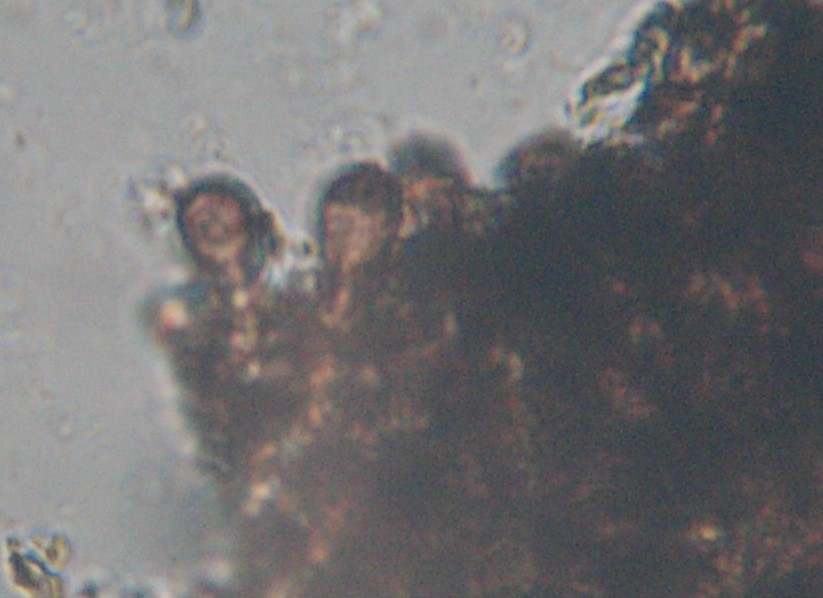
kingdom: Fungi
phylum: Ascomycota
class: Dothideomycetes
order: Pleosporales
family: Corynesporascaceae
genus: Corynespora
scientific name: Corynespora cespitosa
